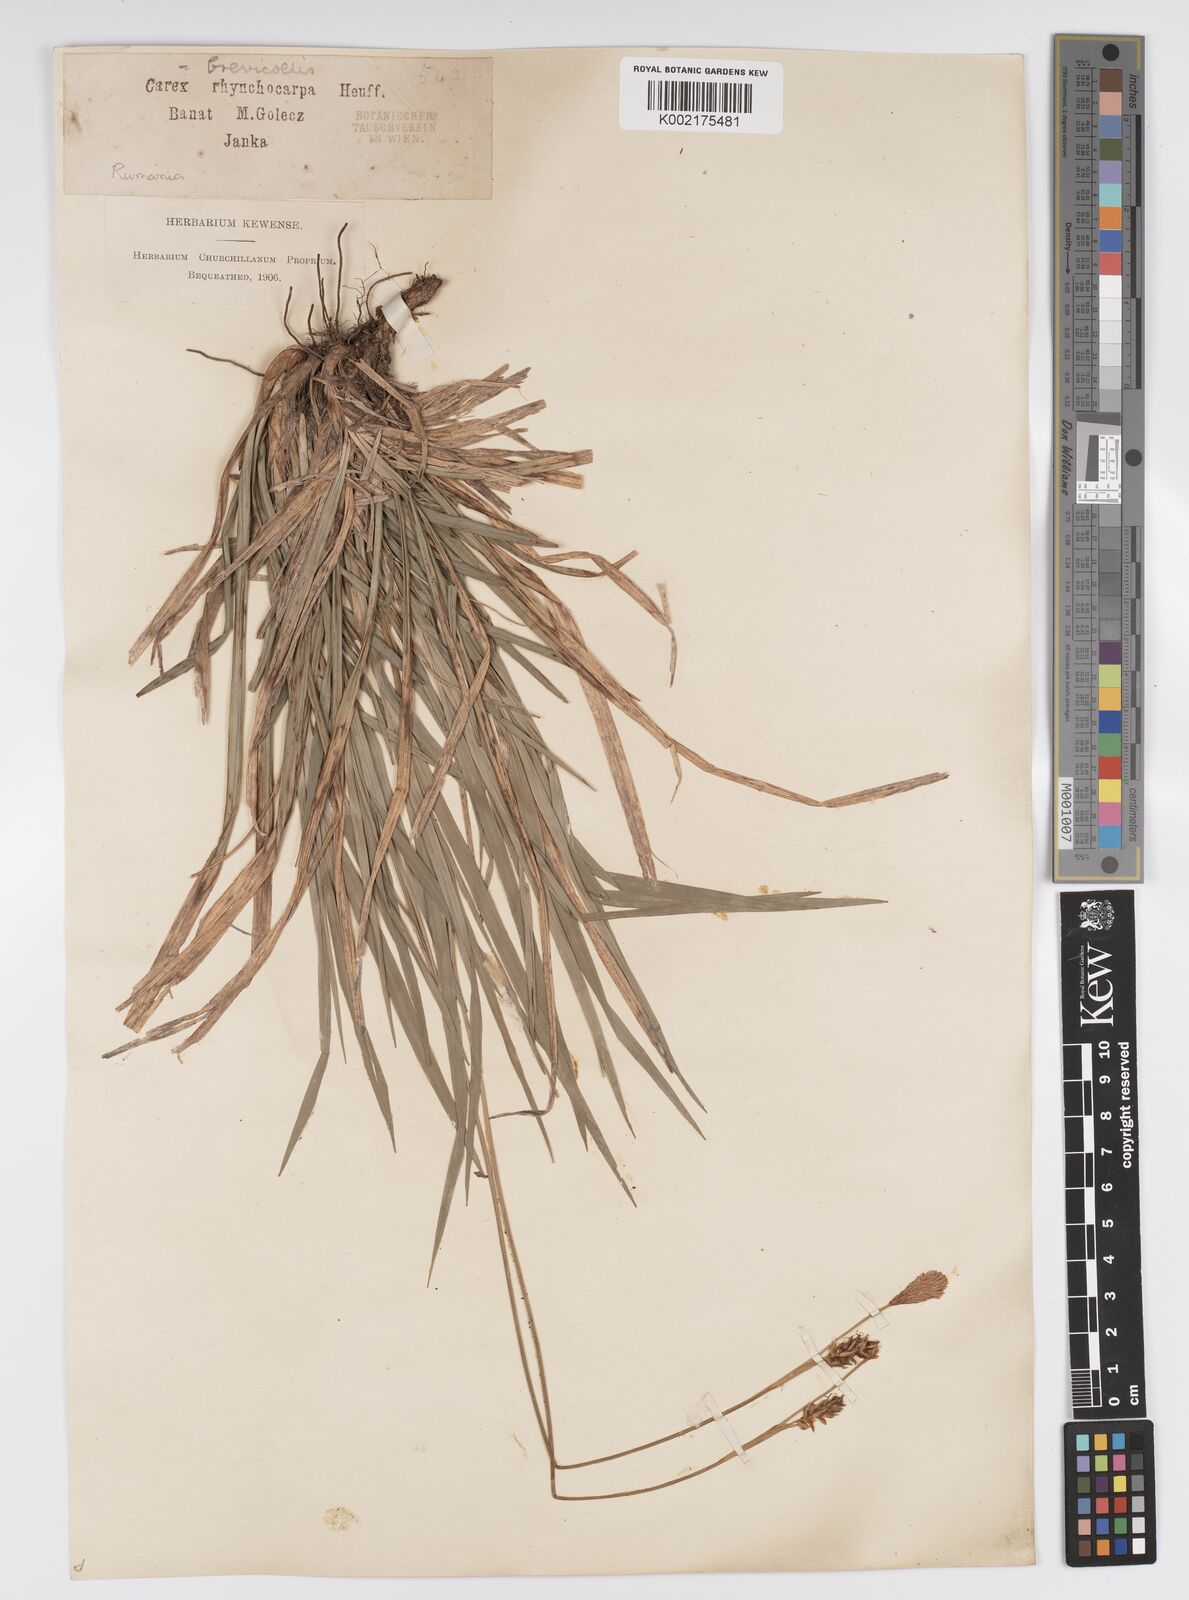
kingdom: Plantae
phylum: Tracheophyta
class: Liliopsida
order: Poales
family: Cyperaceae
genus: Carex
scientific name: Carex brevicollis
